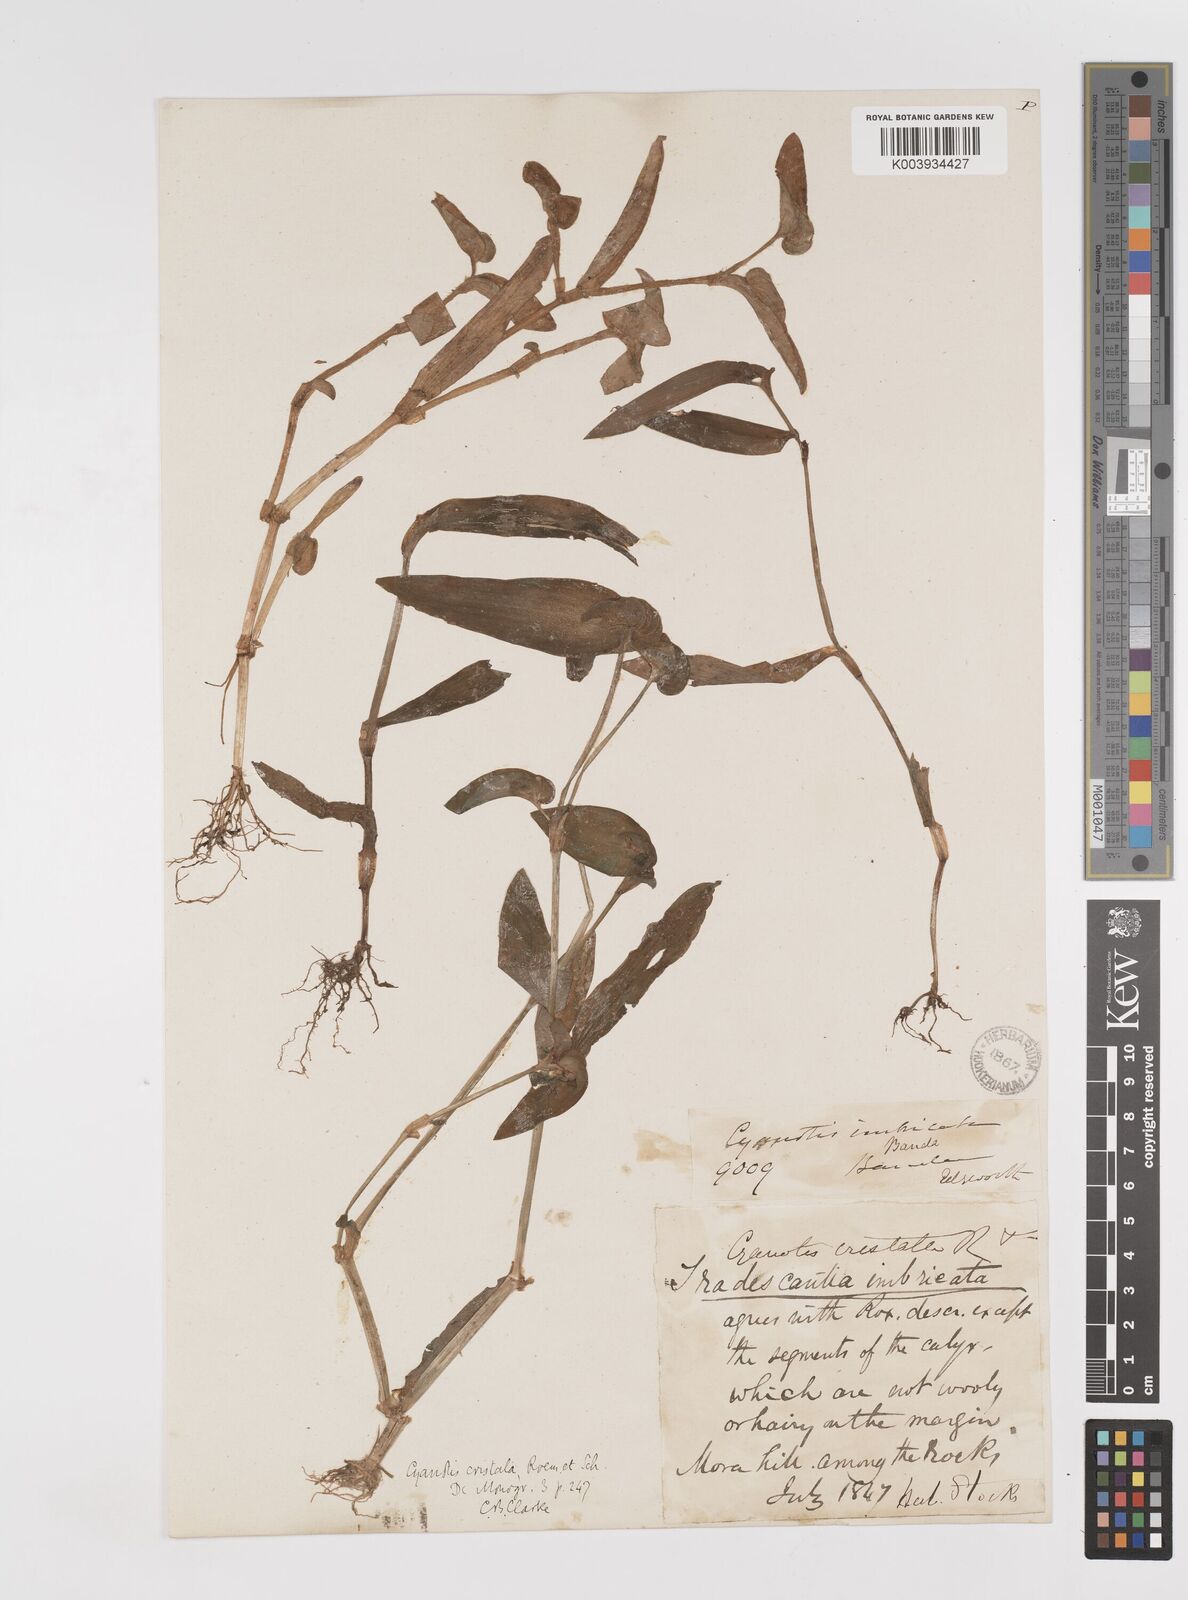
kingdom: Plantae
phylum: Tracheophyta
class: Liliopsida
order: Commelinales
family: Commelinaceae
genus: Cyanotis
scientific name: Cyanotis cristata
